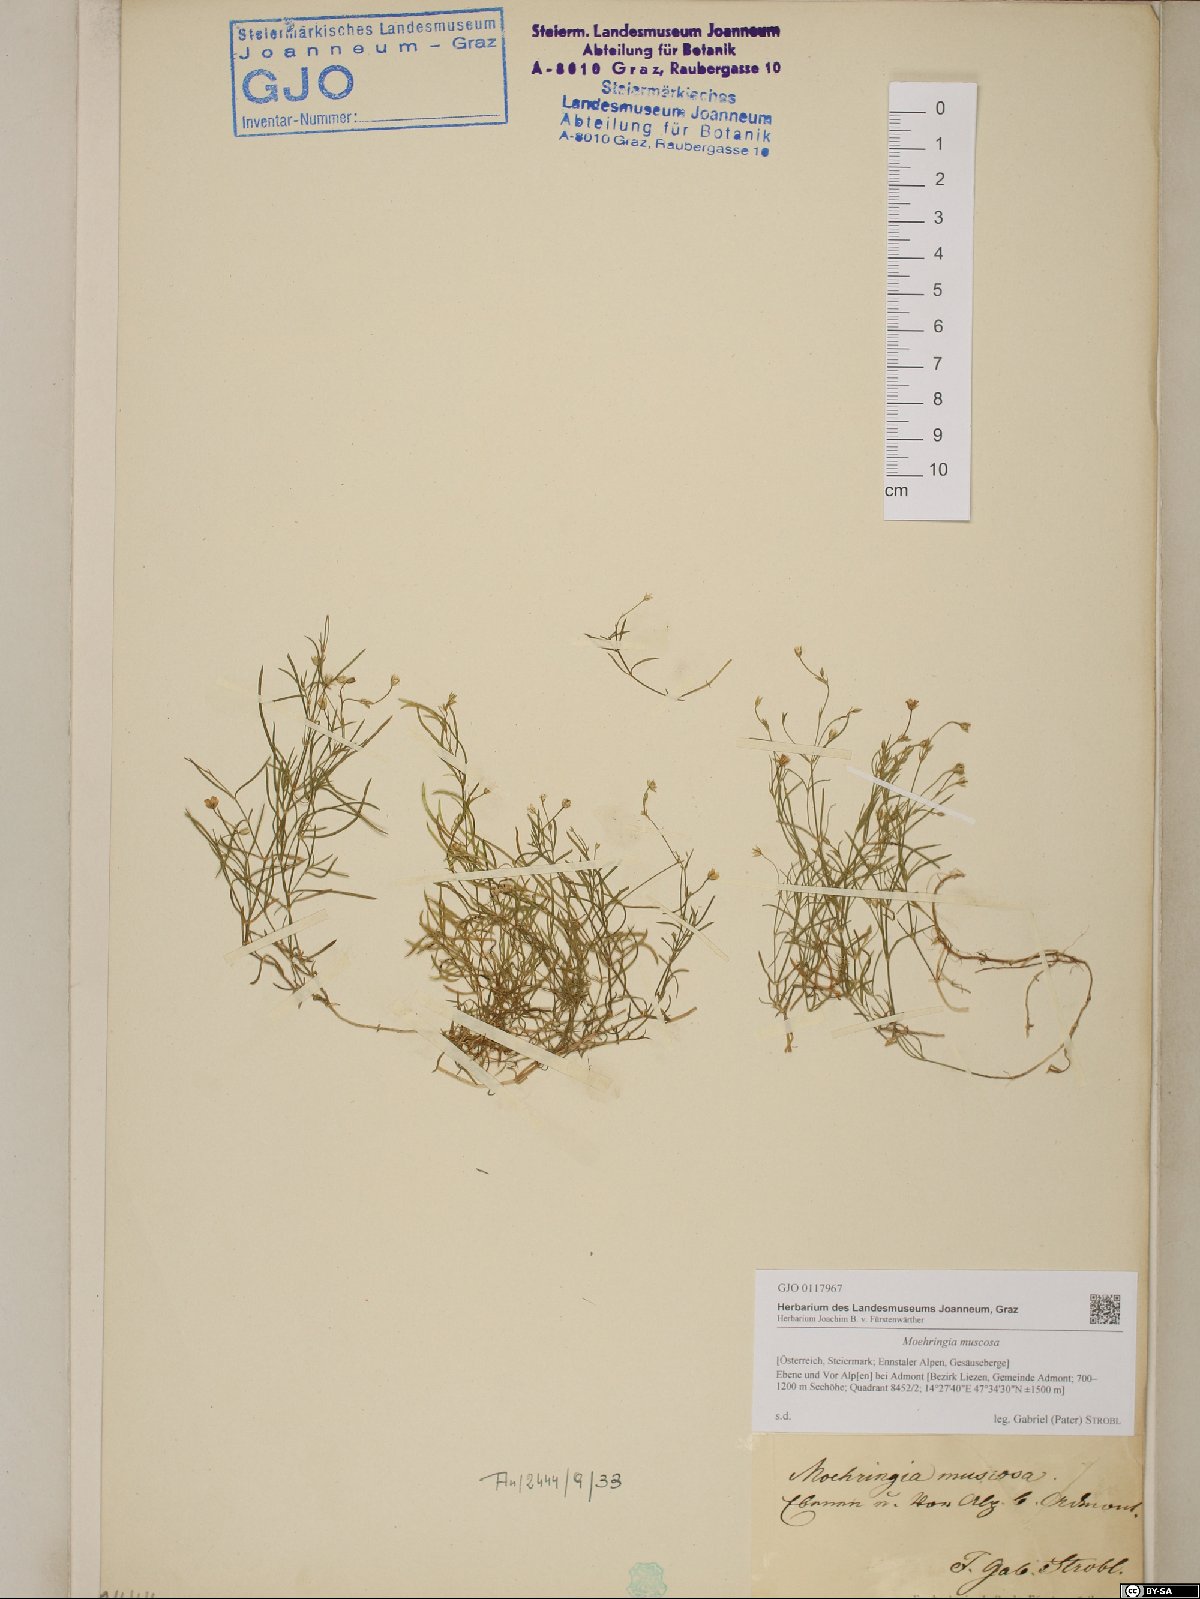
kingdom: Plantae
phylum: Tracheophyta
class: Magnoliopsida
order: Caryophyllales
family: Caryophyllaceae
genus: Moehringia
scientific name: Moehringia muscosa
